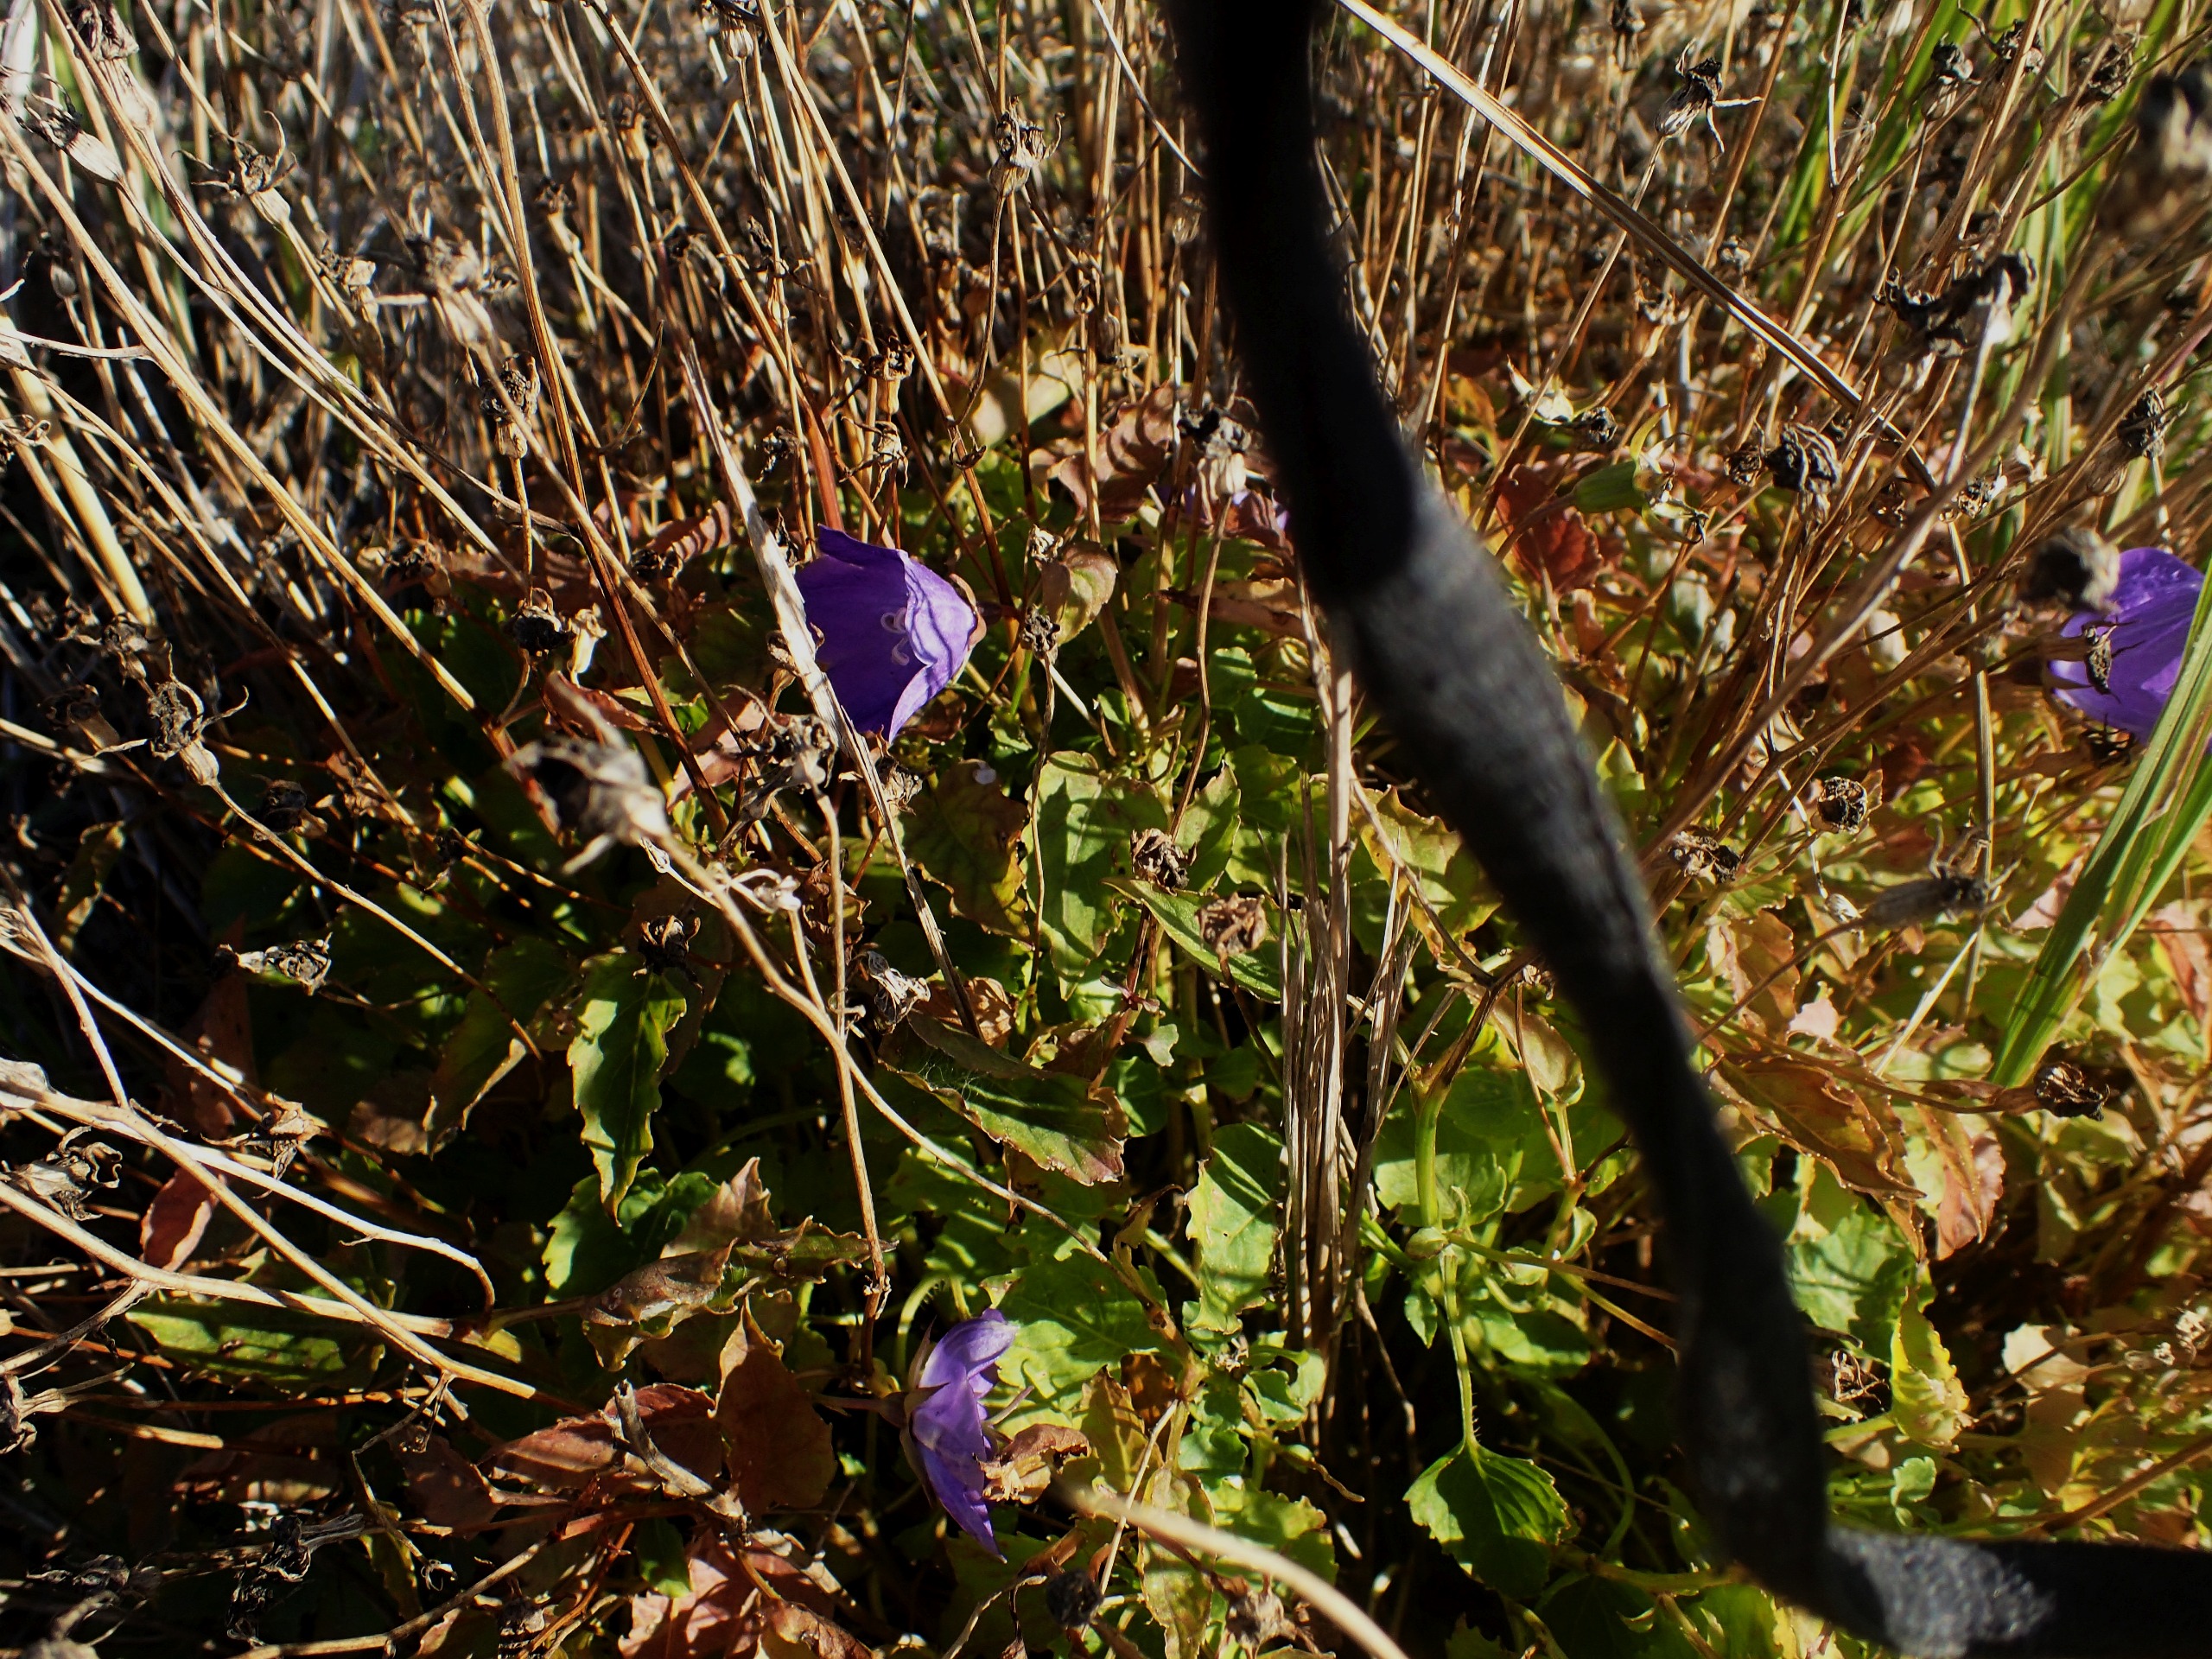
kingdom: Plantae
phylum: Tracheophyta
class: Magnoliopsida
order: Asterales
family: Campanulaceae
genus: Campanula
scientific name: Campanula carpatica
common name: Karpater-klokke
